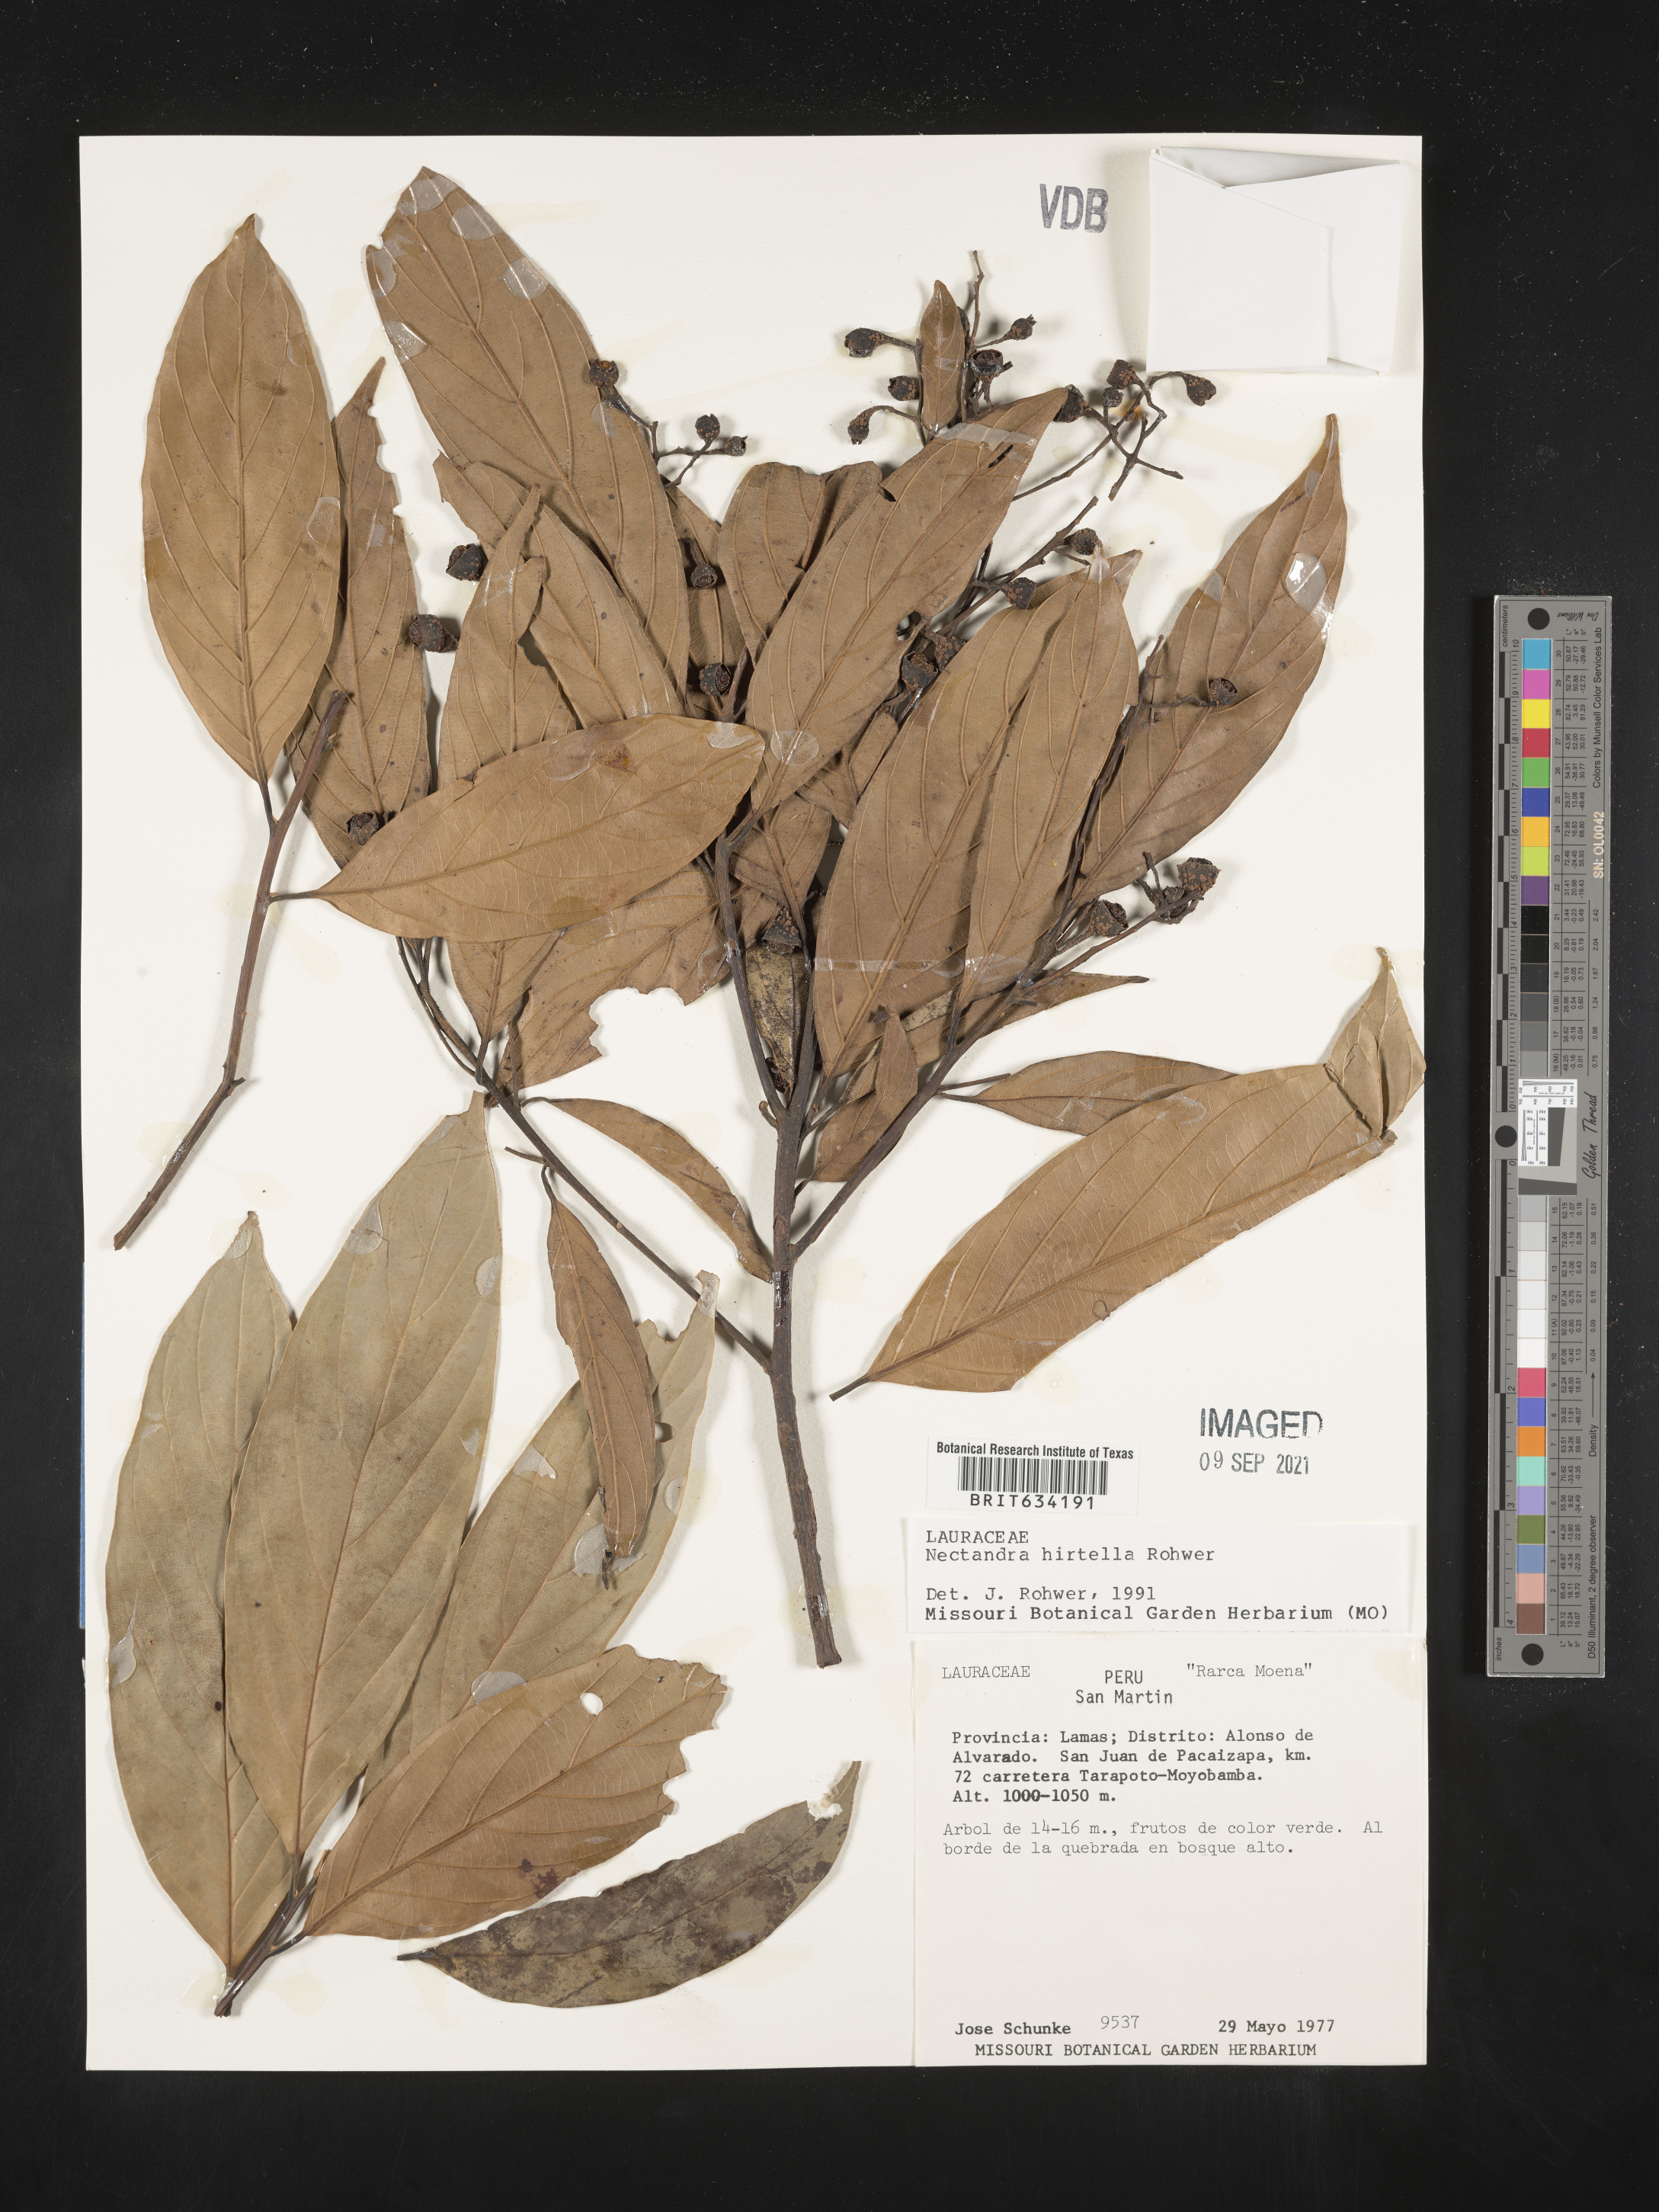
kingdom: Plantae
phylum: Tracheophyta
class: Magnoliopsida
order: Laurales
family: Lauraceae
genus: Nectandra
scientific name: Nectandra
